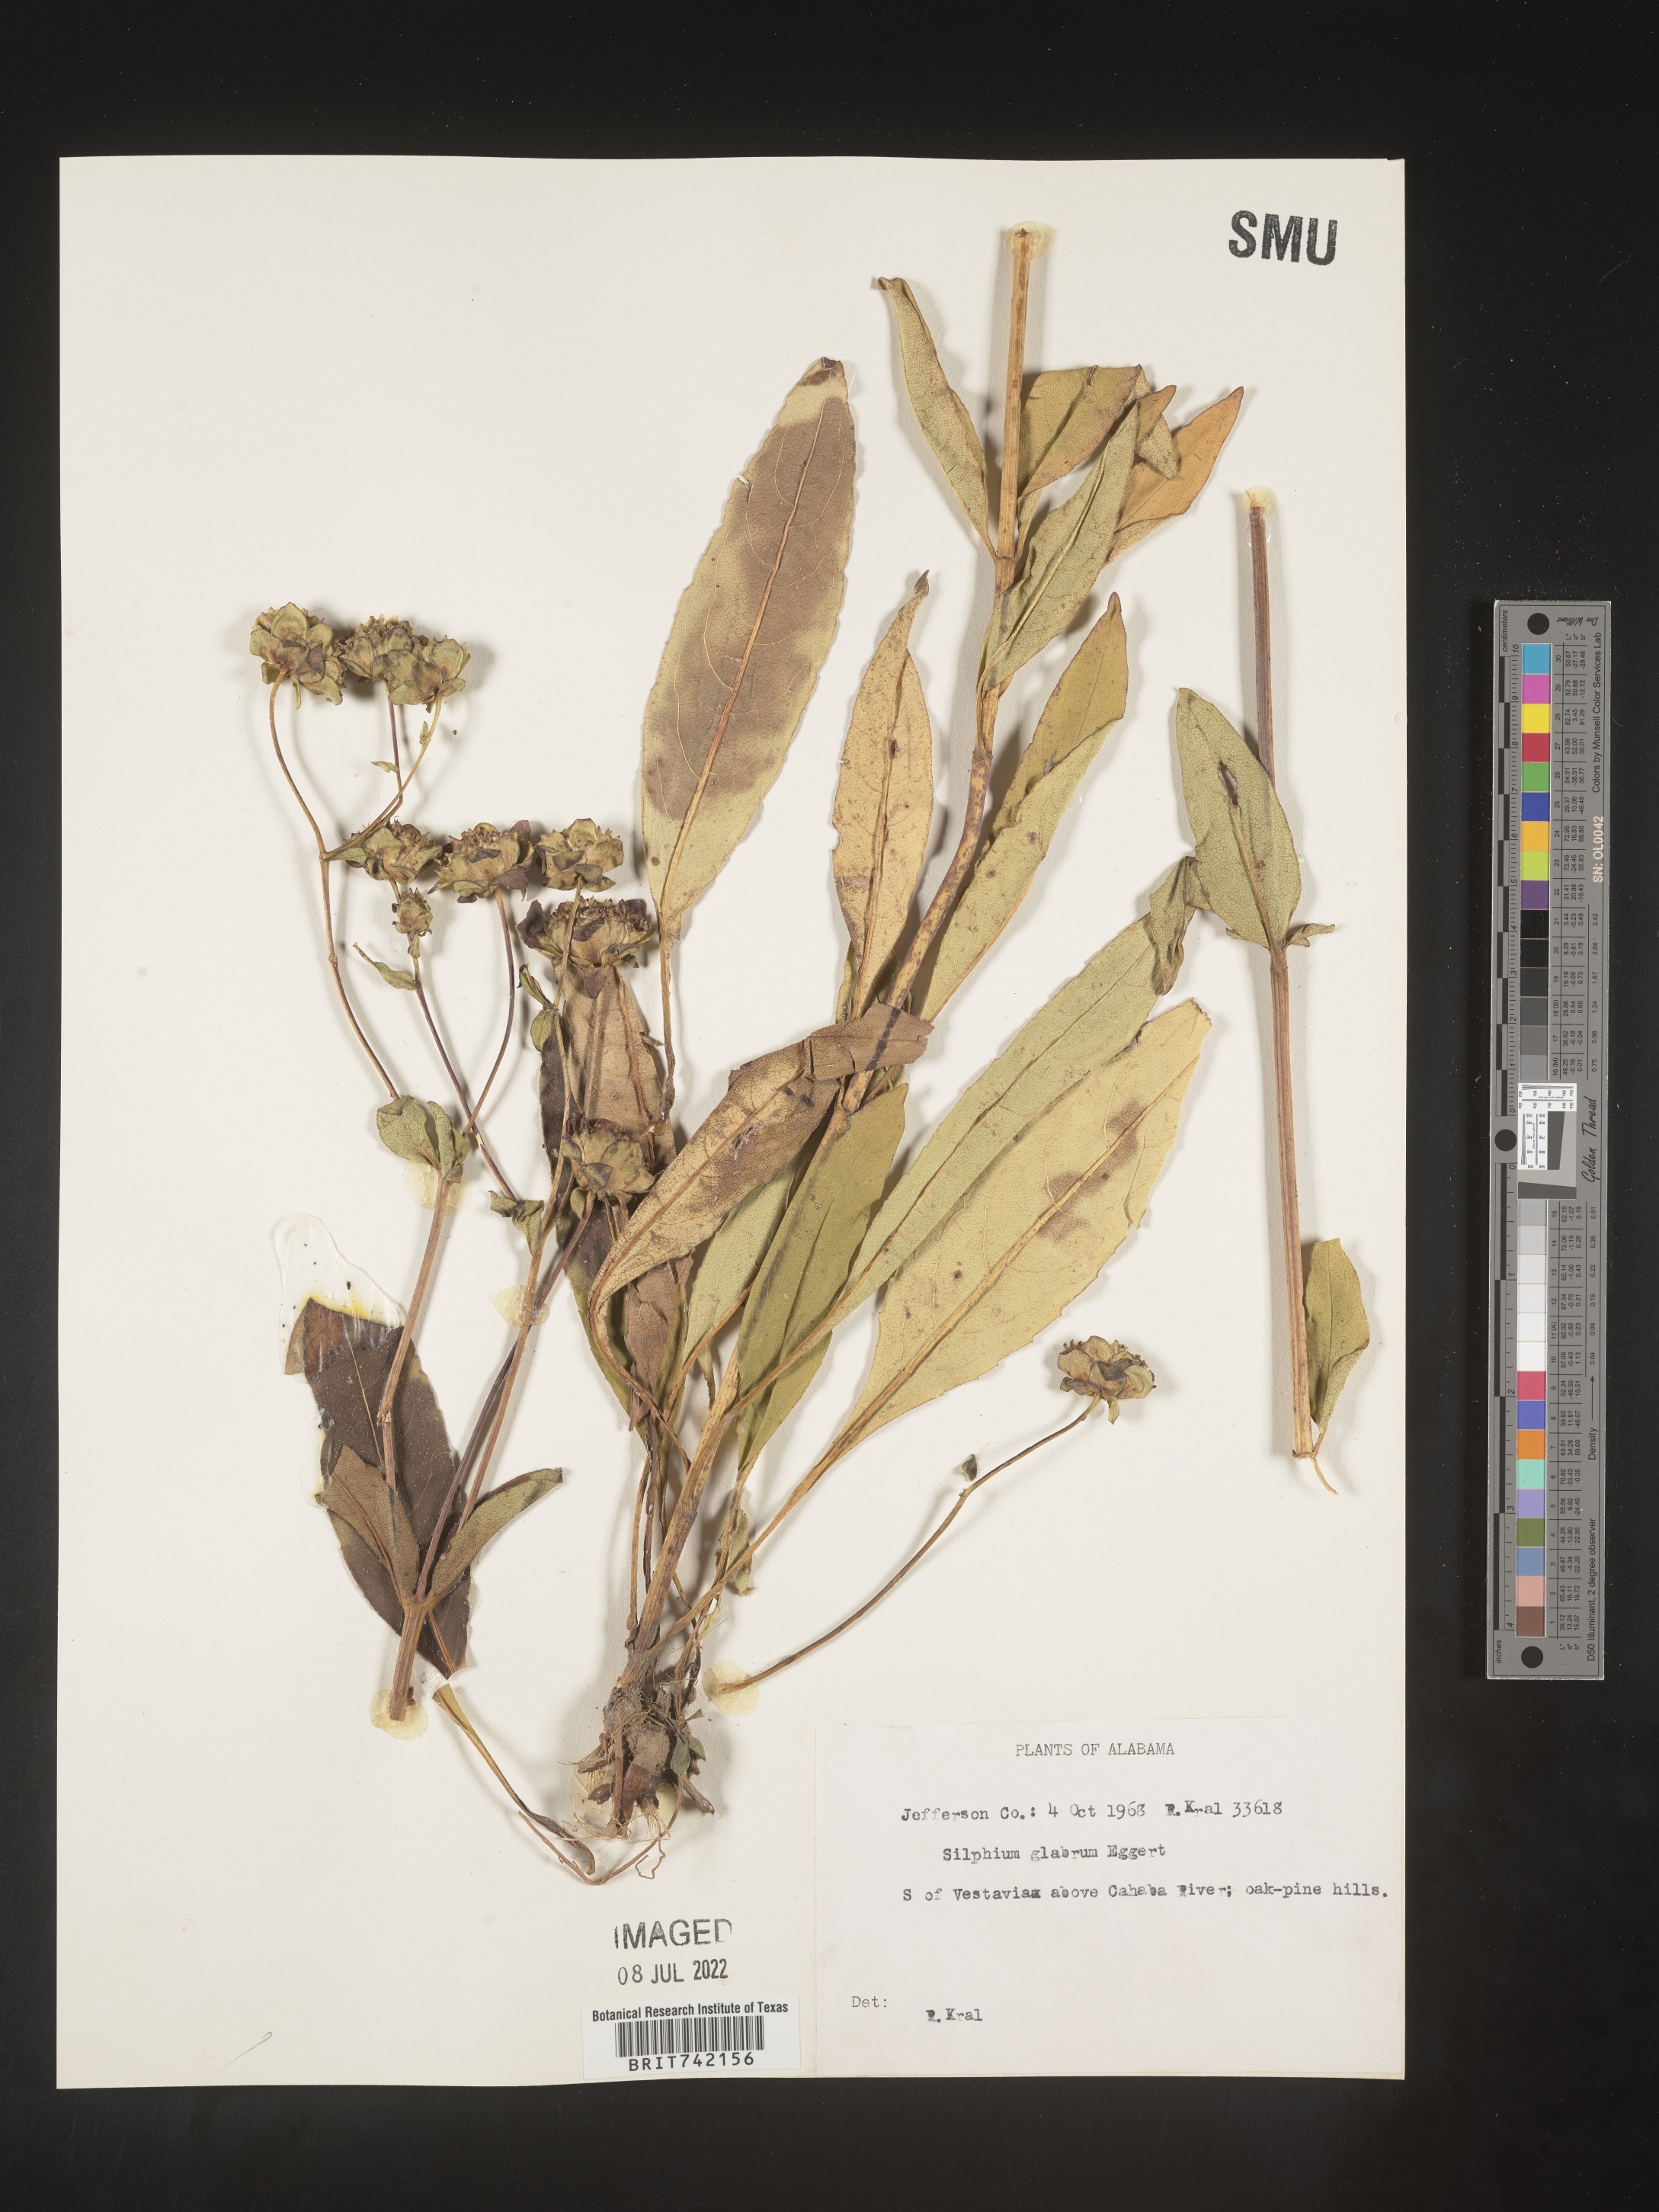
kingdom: Plantae
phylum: Tracheophyta
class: Magnoliopsida
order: Asterales
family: Asteraceae
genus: Silphium
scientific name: Silphium glabrum
